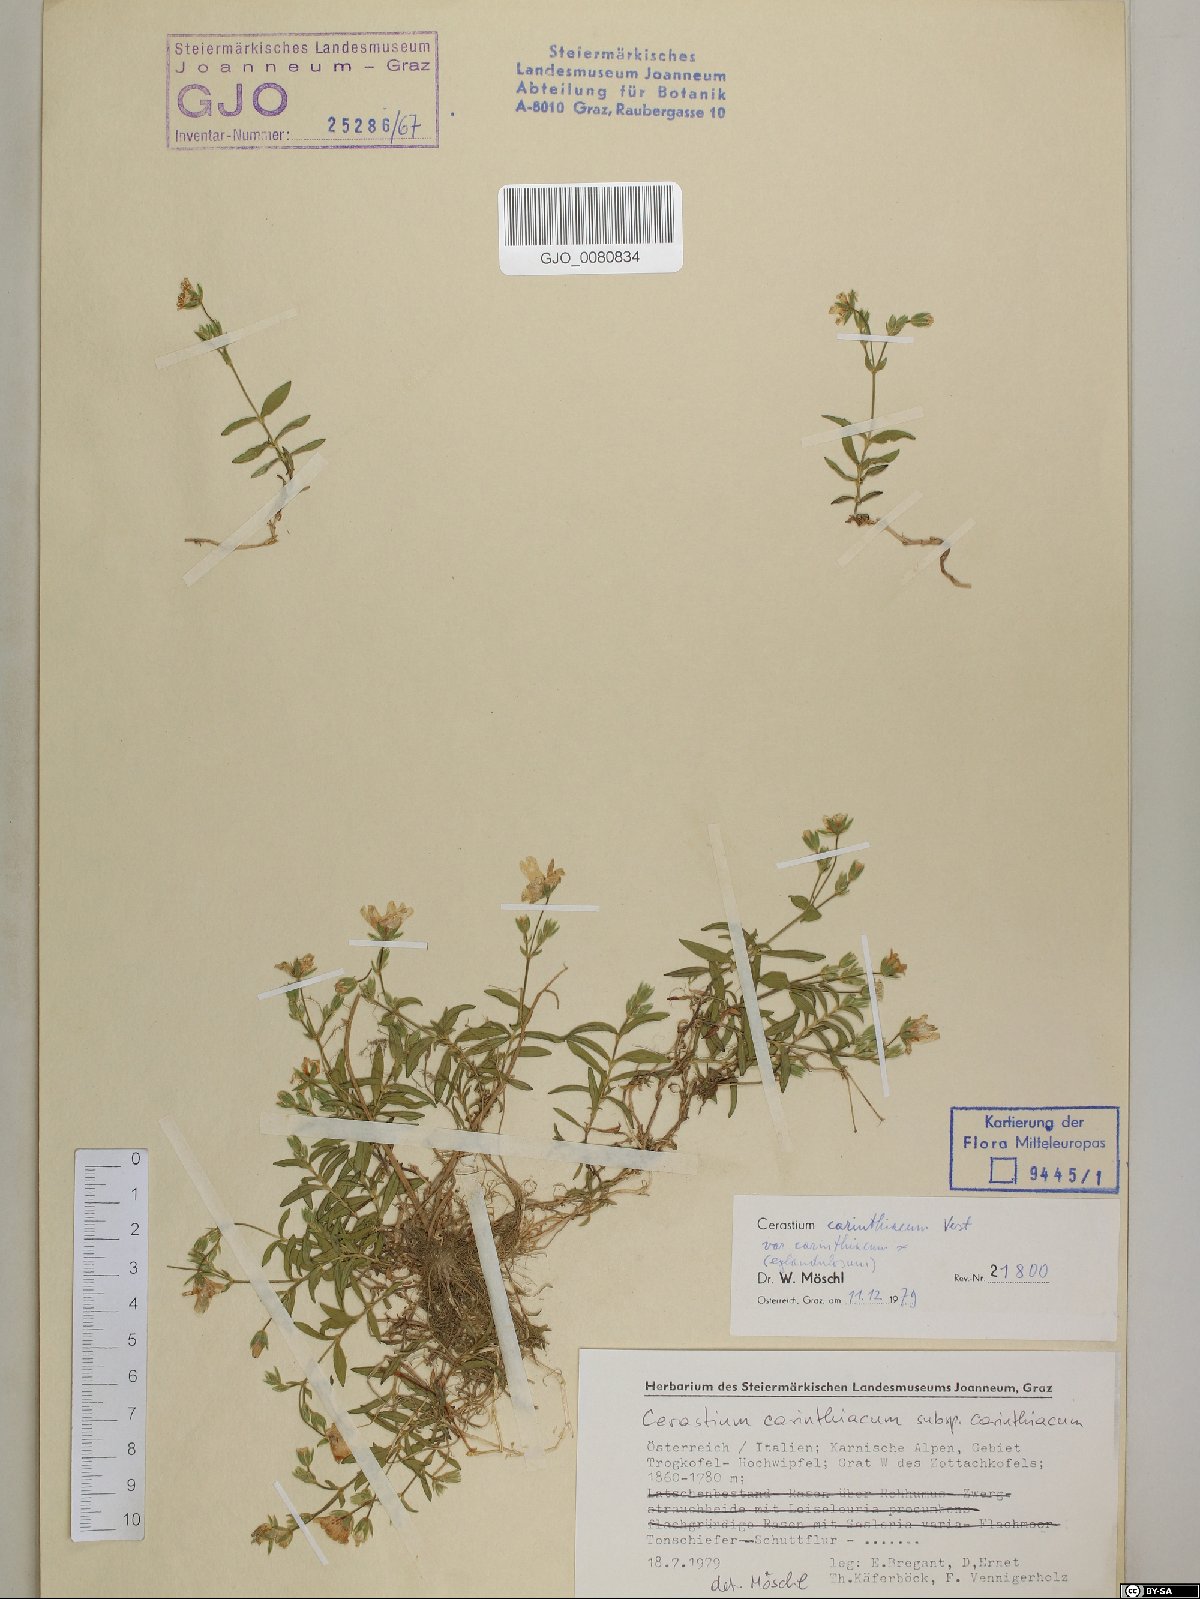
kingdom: Plantae
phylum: Tracheophyta
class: Magnoliopsida
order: Caryophyllales
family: Caryophyllaceae
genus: Cerastium
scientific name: Cerastium carinthiacum
